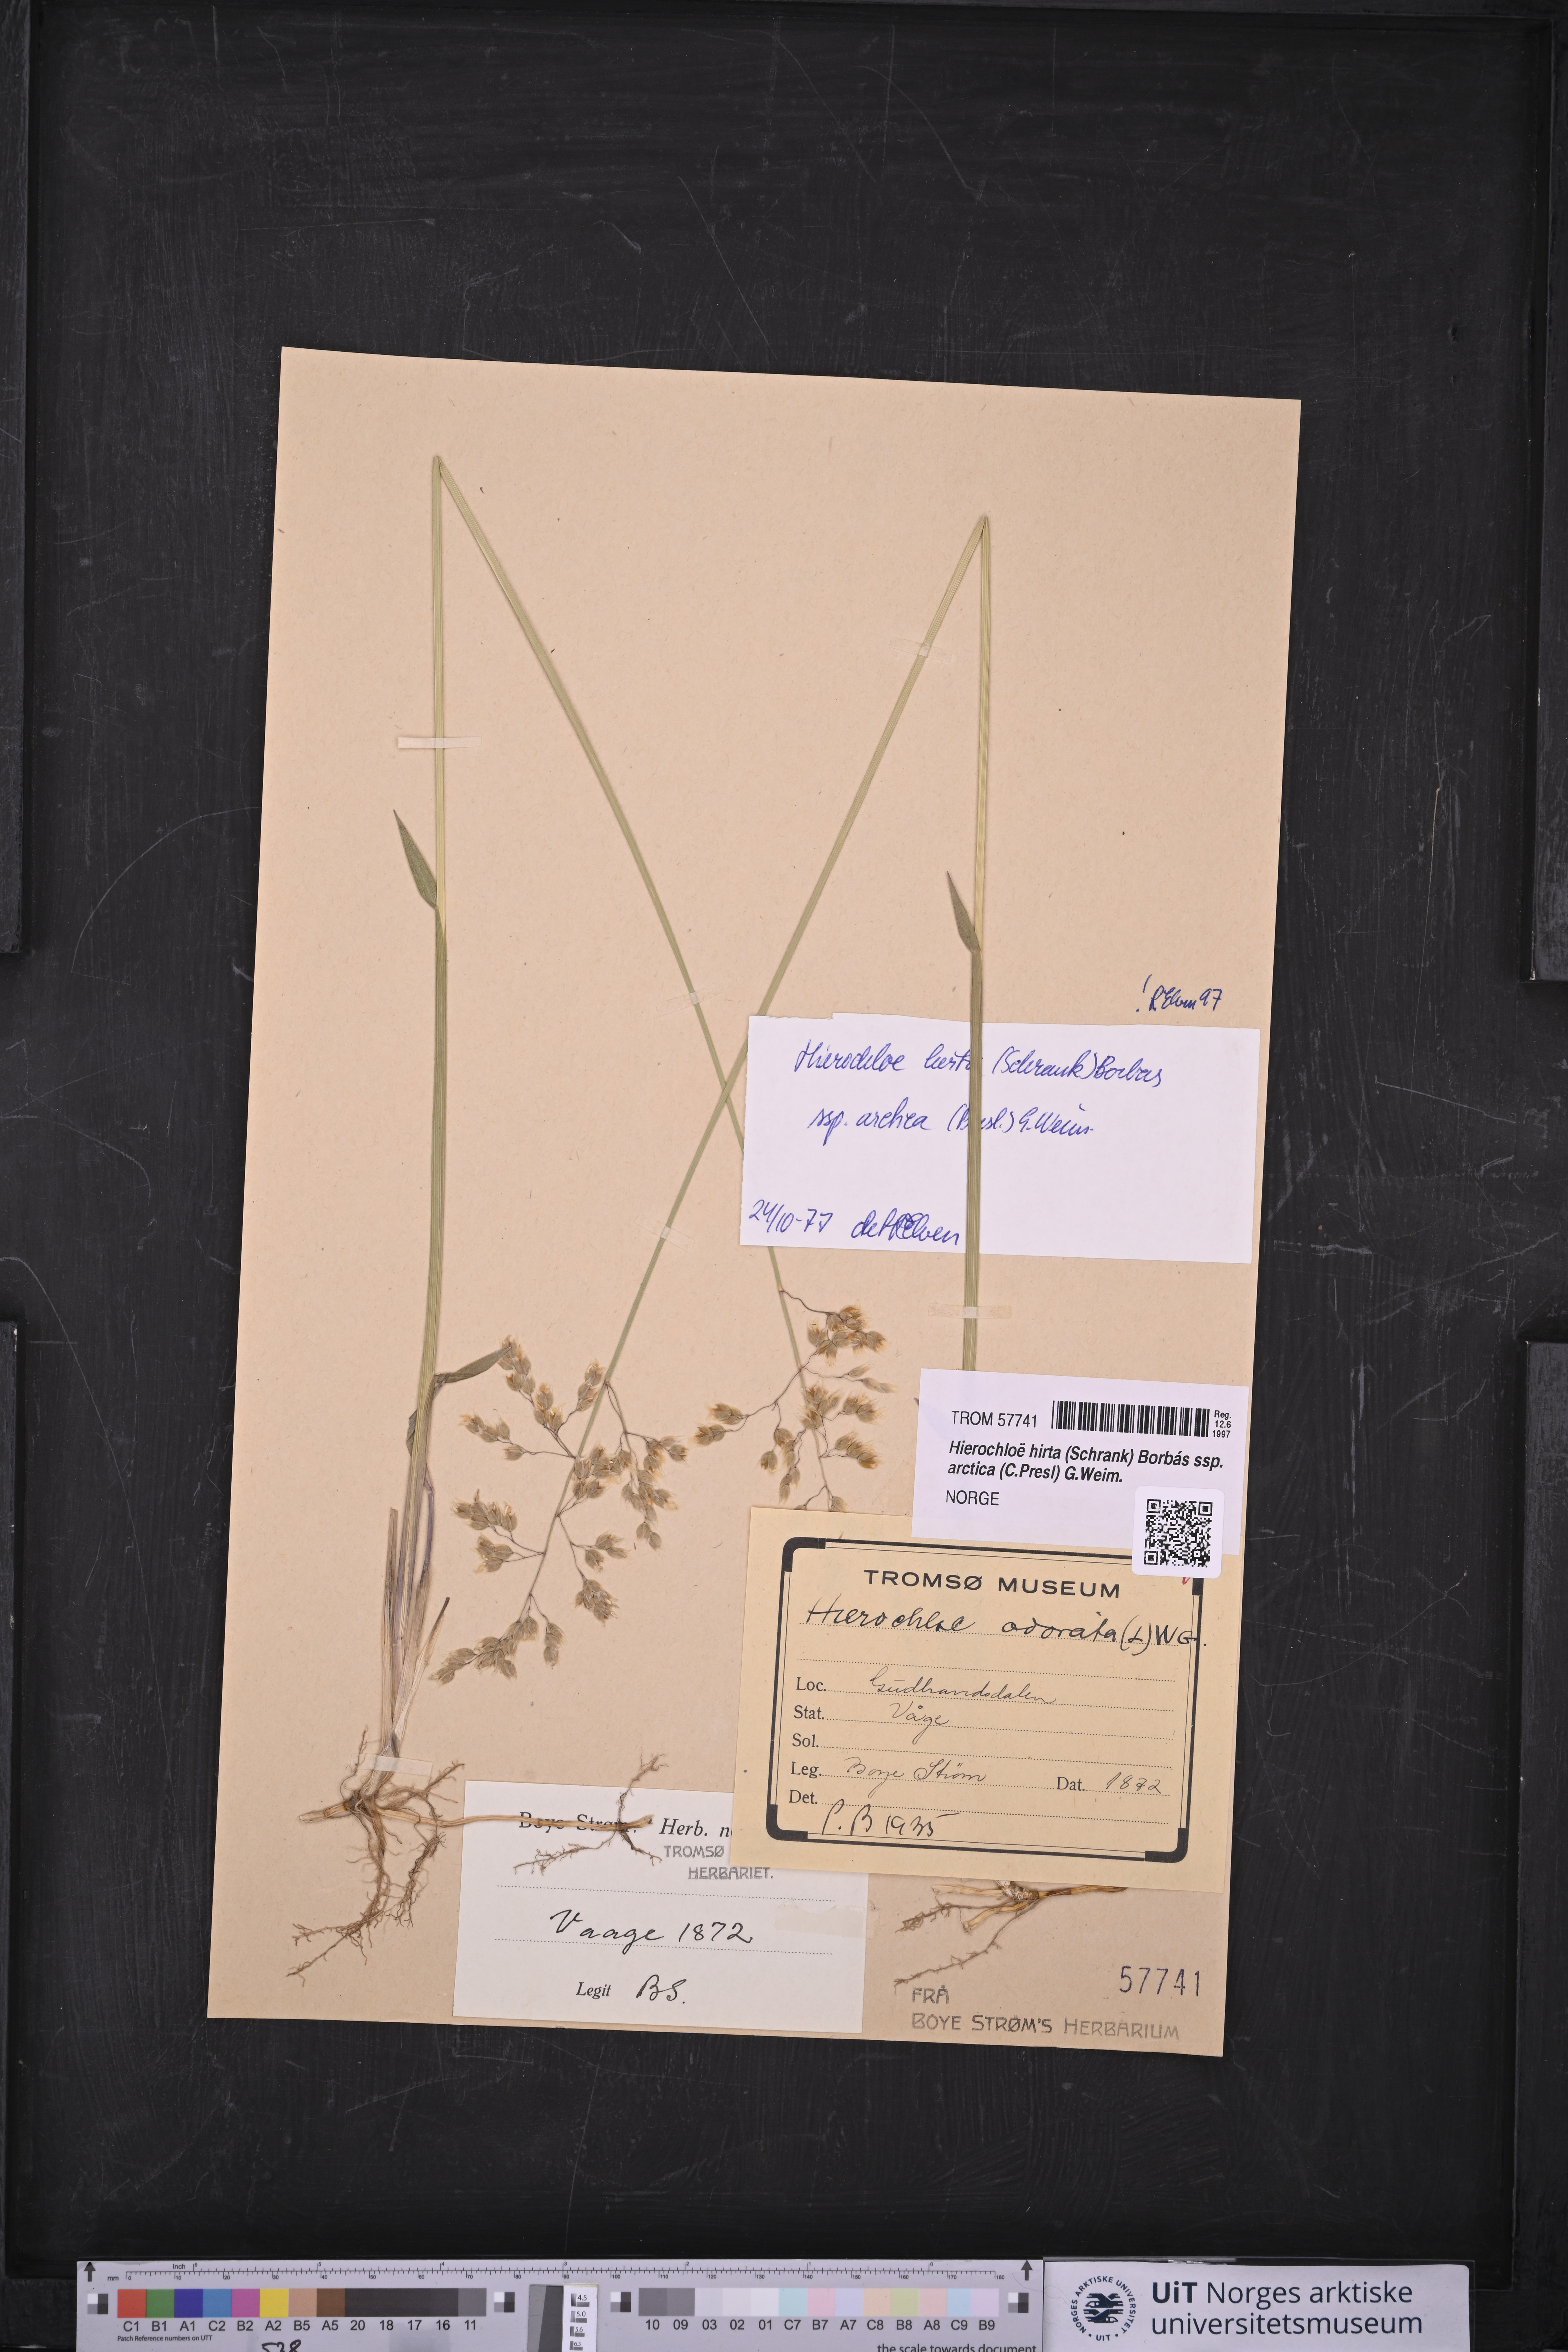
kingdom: Plantae
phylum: Tracheophyta
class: Liliopsida
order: Poales
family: Poaceae
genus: Anthoxanthum
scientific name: Anthoxanthum nitens
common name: Holy grass
